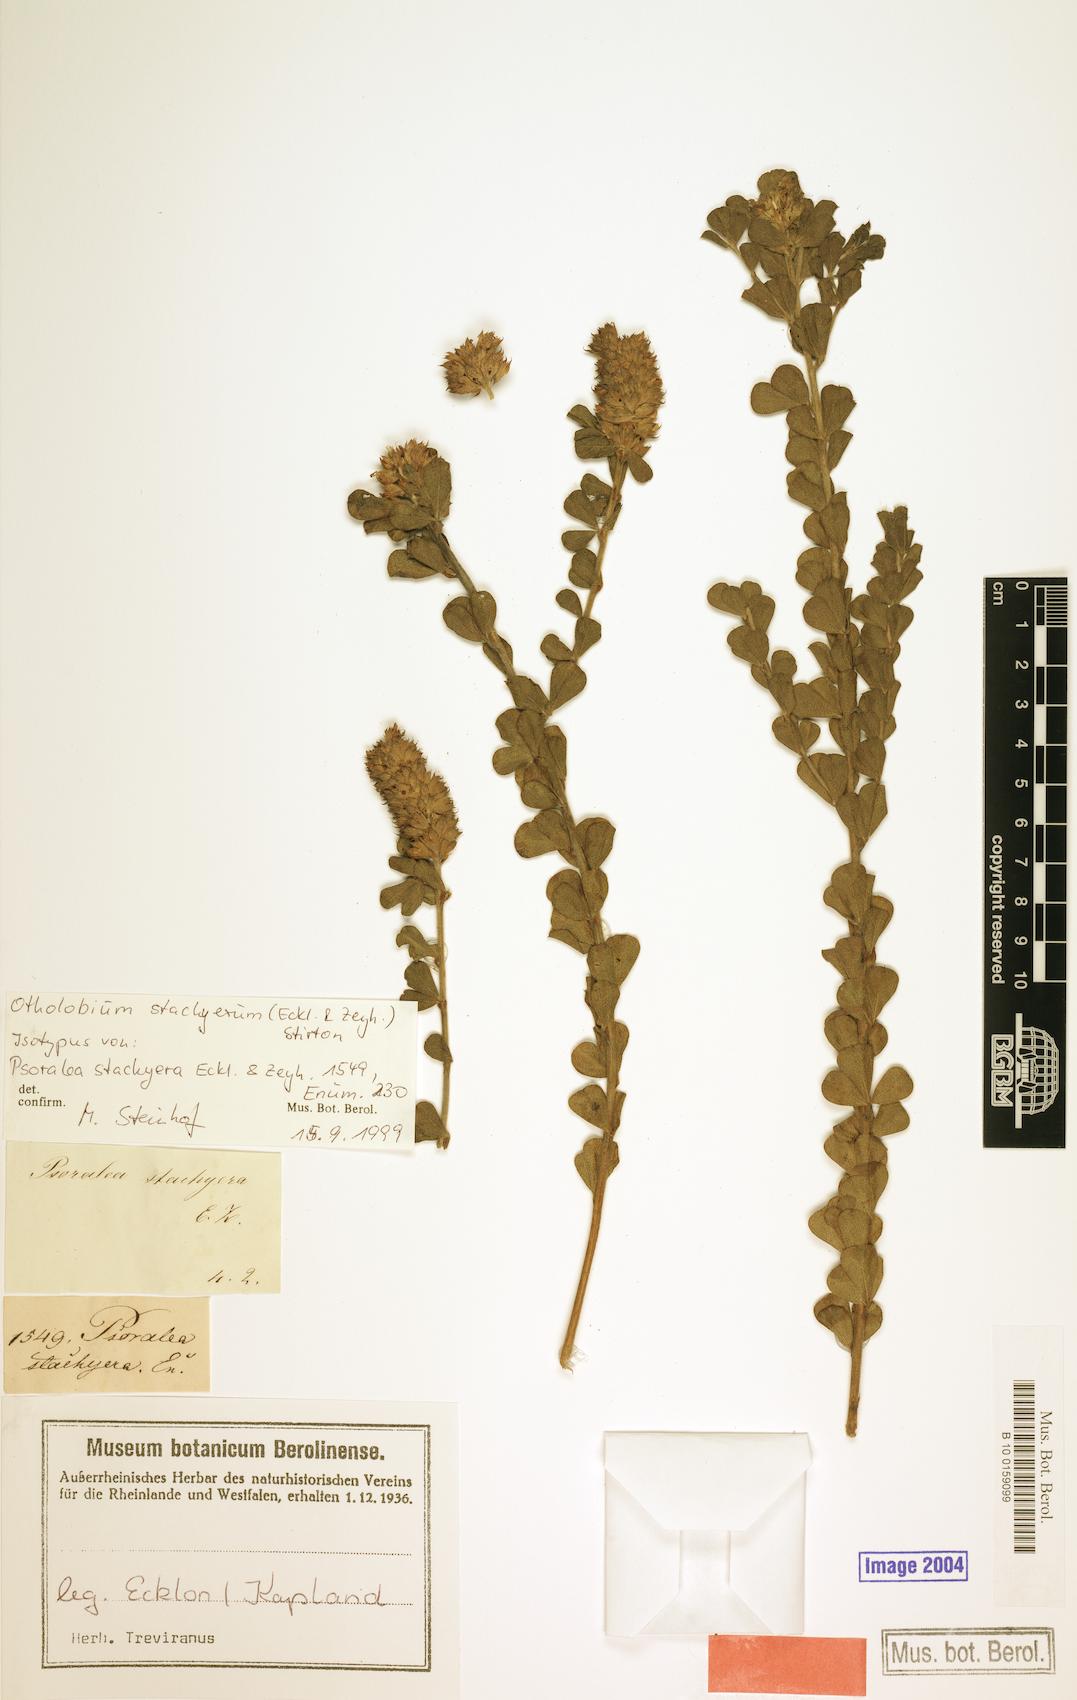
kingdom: Plantae
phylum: Tracheophyta
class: Magnoliopsida
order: Fabales
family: Fabaceae
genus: Psoralea
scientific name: Psoralea stachyera
